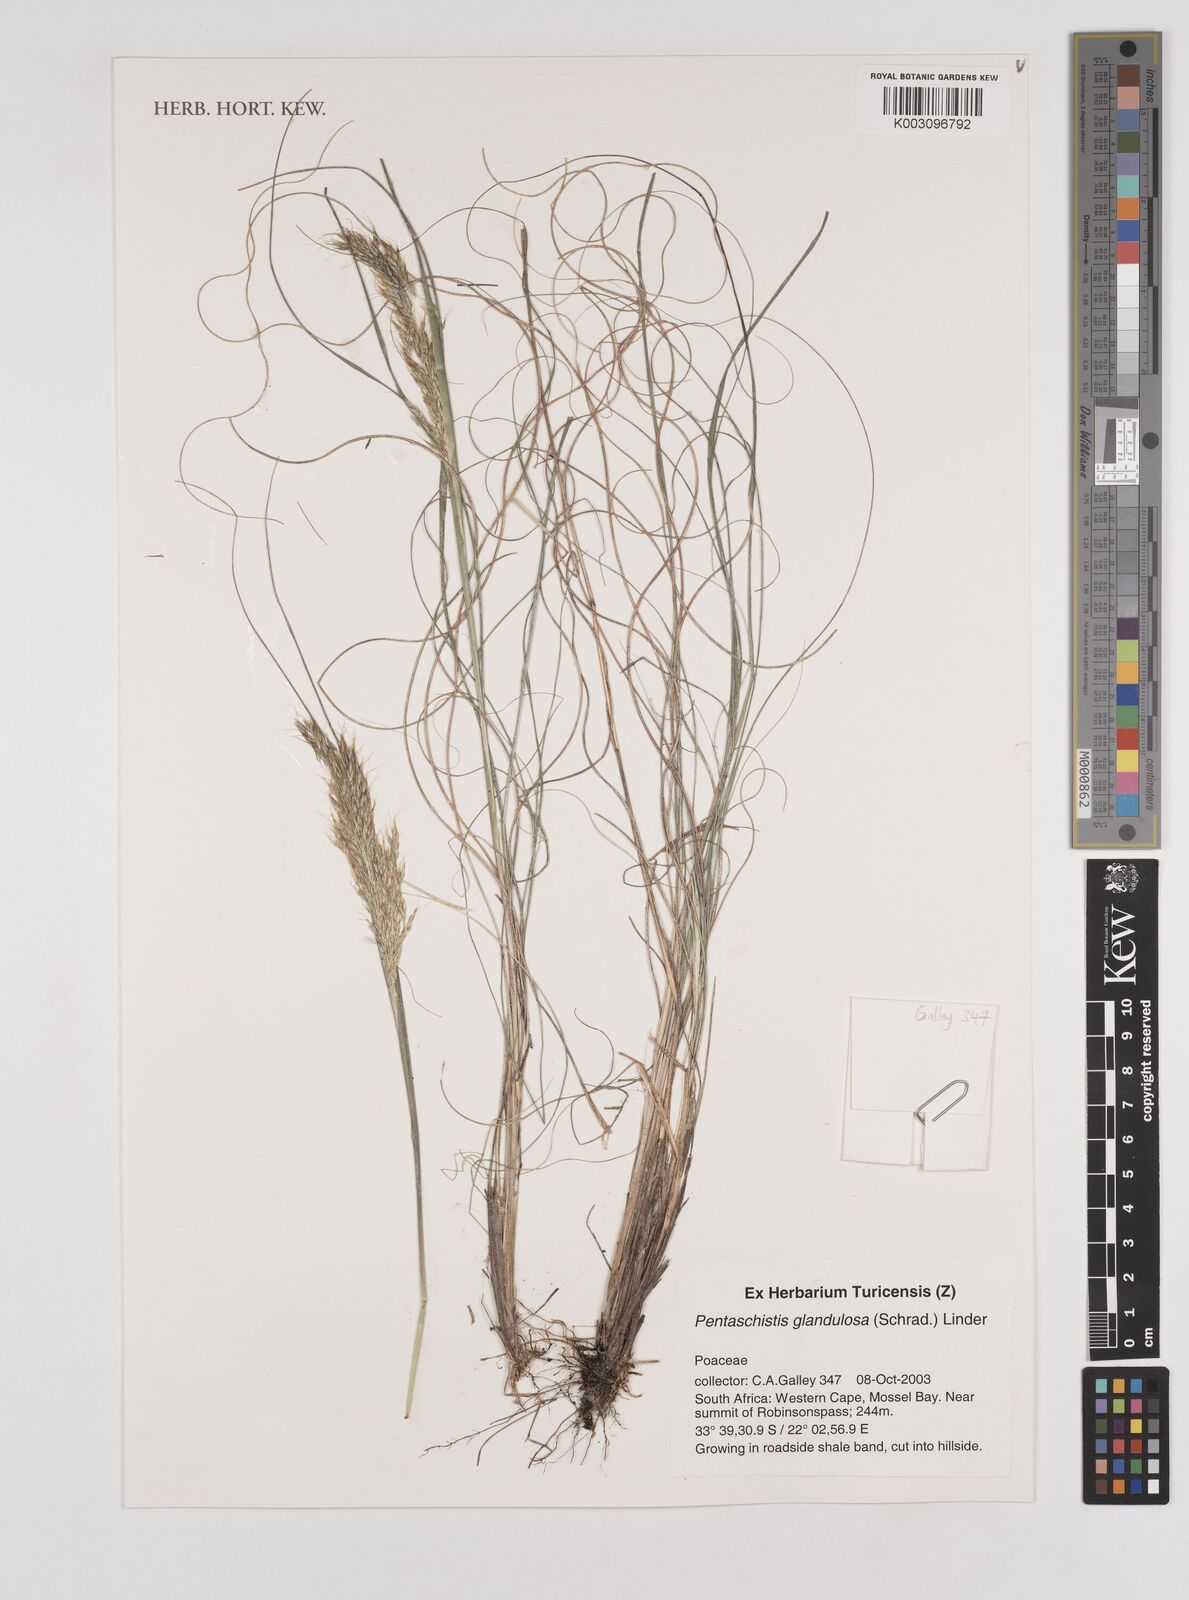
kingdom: Plantae
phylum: Tracheophyta
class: Liliopsida
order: Poales
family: Poaceae
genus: Pentameris
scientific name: Pentameris glandulosa
